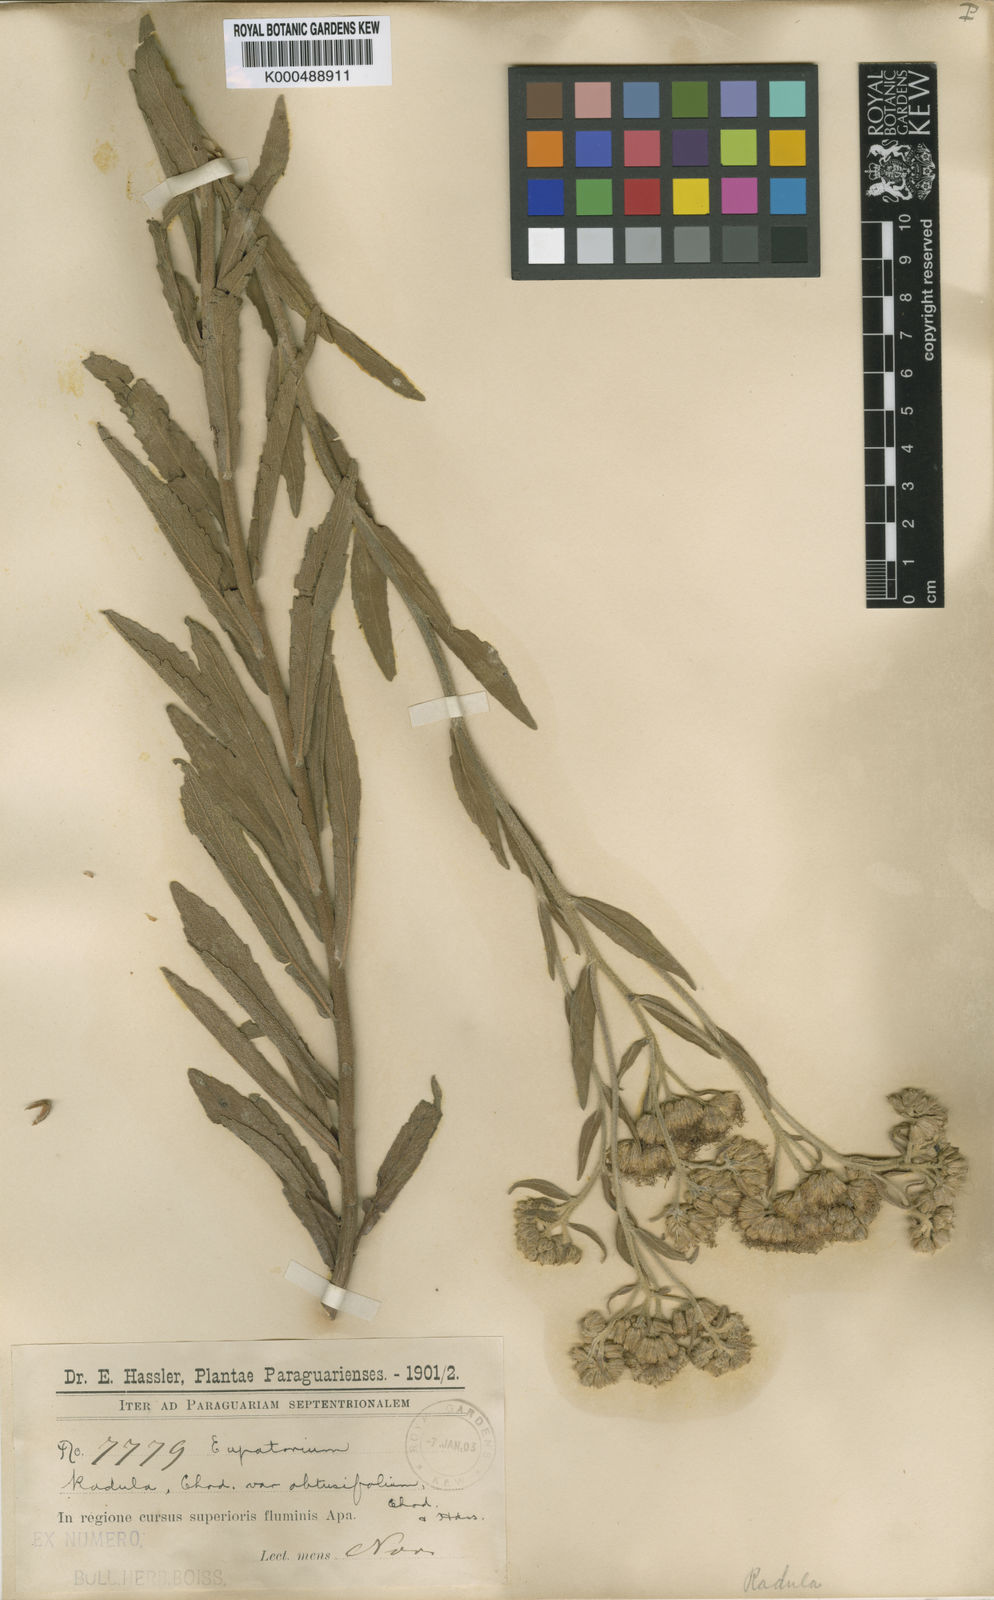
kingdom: Plantae
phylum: Tracheophyta
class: Magnoliopsida
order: Asterales
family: Asteraceae
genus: Disynaphia
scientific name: Disynaphia radula
